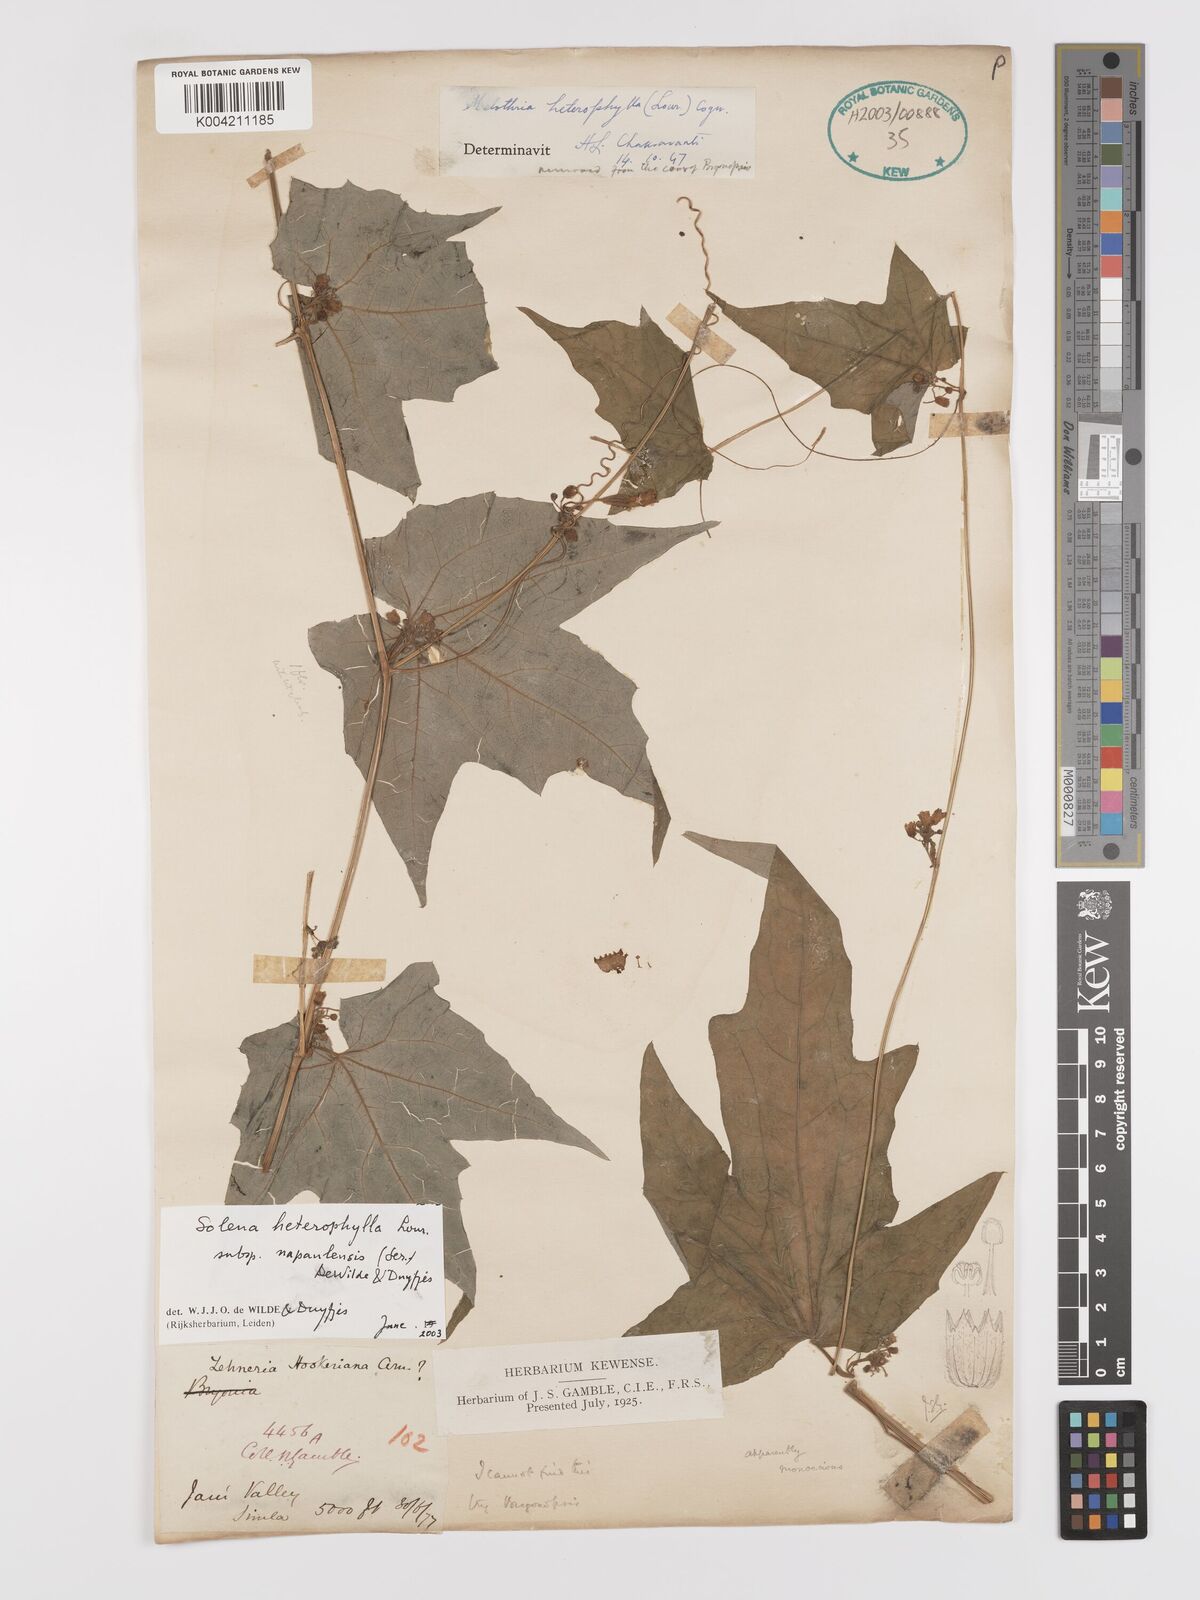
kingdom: Plantae
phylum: Tracheophyta
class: Magnoliopsida
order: Cucurbitales
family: Cucurbitaceae
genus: Solena
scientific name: Solena heterophylla
